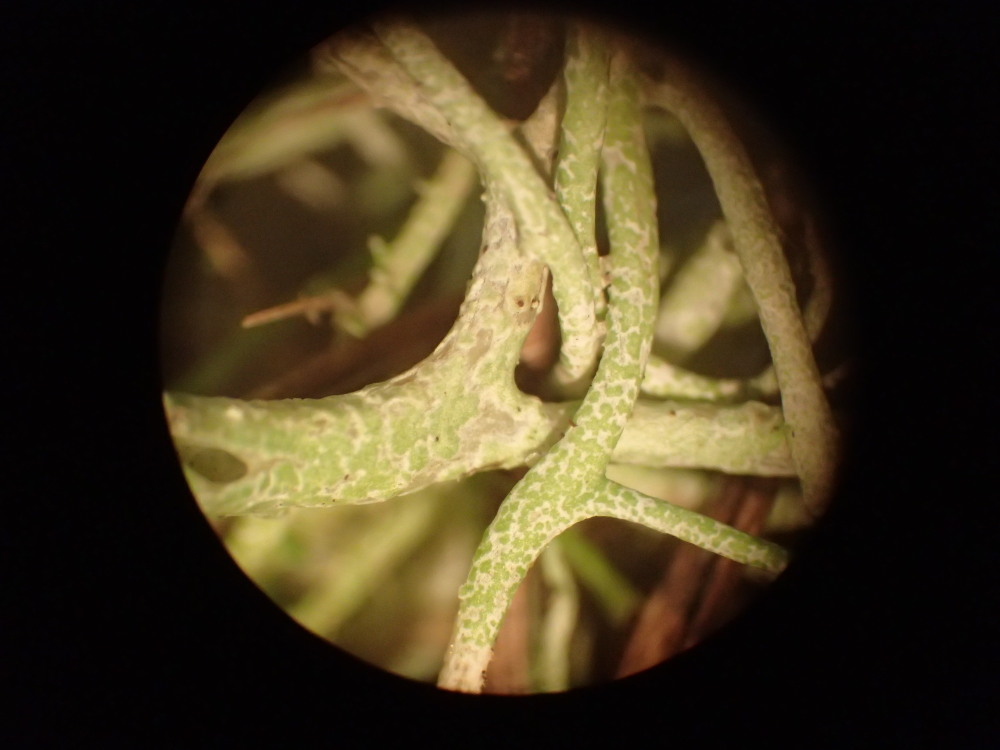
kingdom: Fungi
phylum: Ascomycota
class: Lecanoromycetes
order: Lecanorales
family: Cladoniaceae
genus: Cladonia
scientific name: Cladonia furcata
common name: kløftet bægerlav
